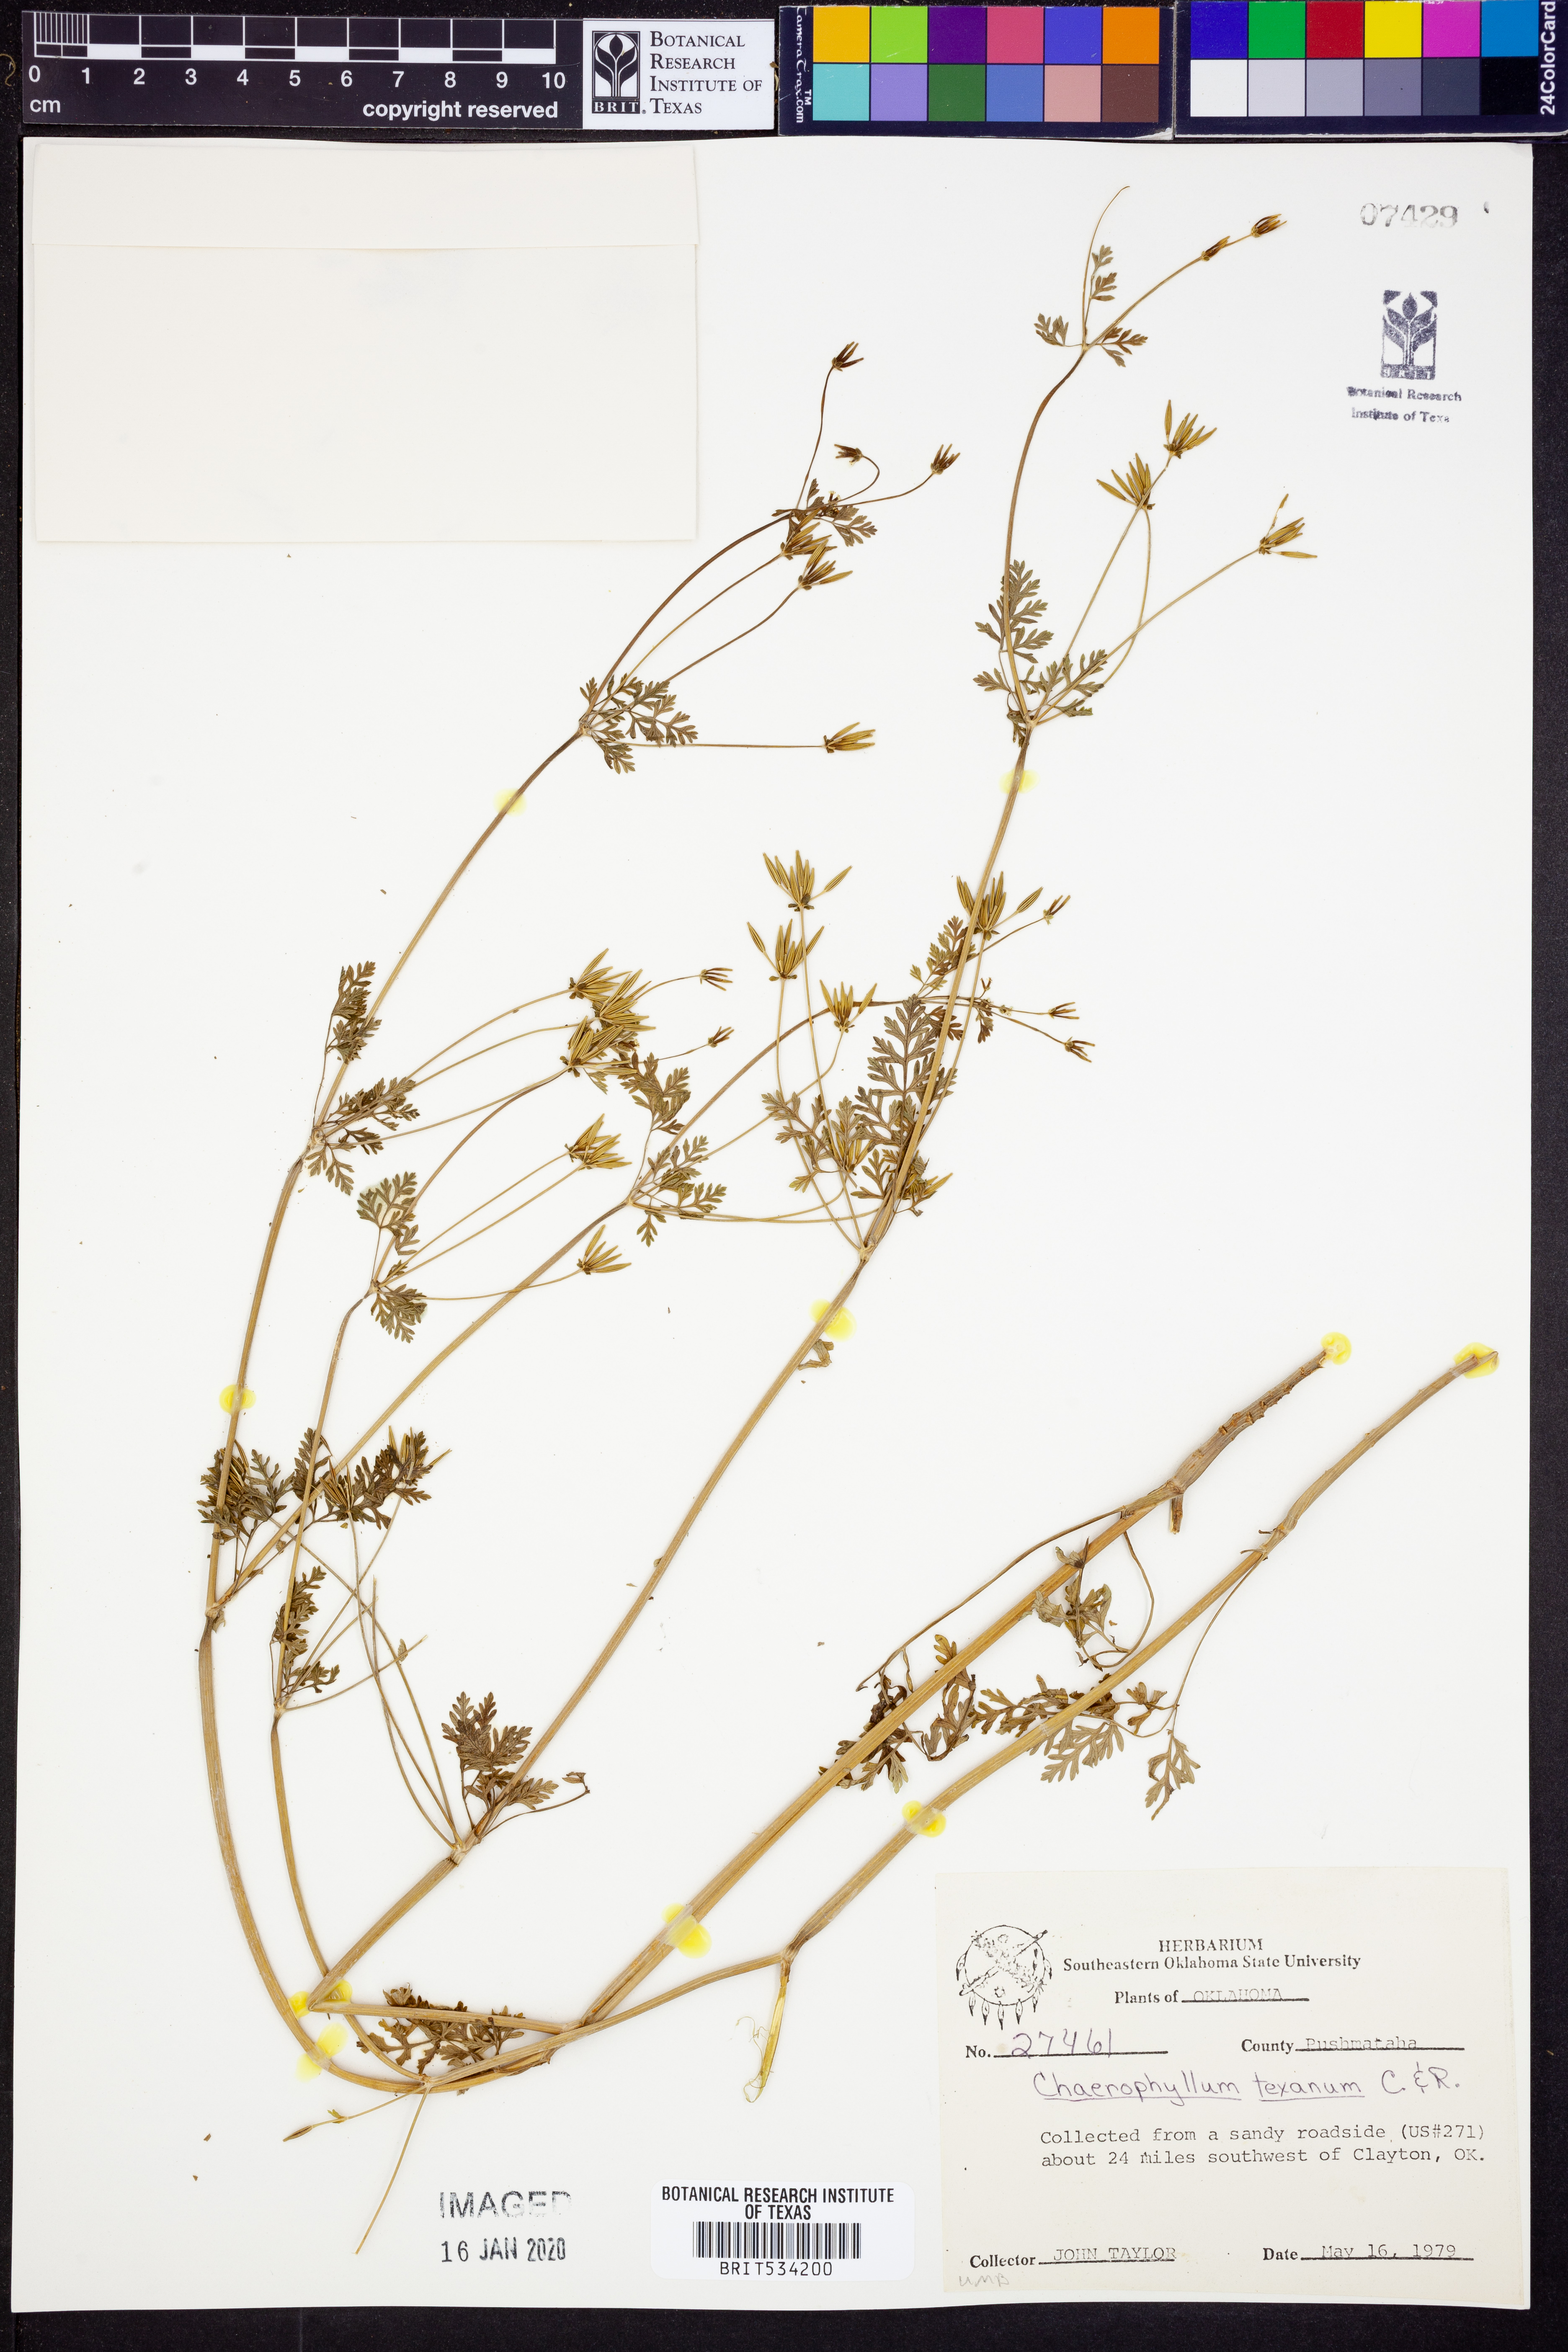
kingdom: Plantae
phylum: Tracheophyta
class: Magnoliopsida
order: Apiales
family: Apiaceae
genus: Chaerophyllum
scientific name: Chaerophyllum tainturieri
